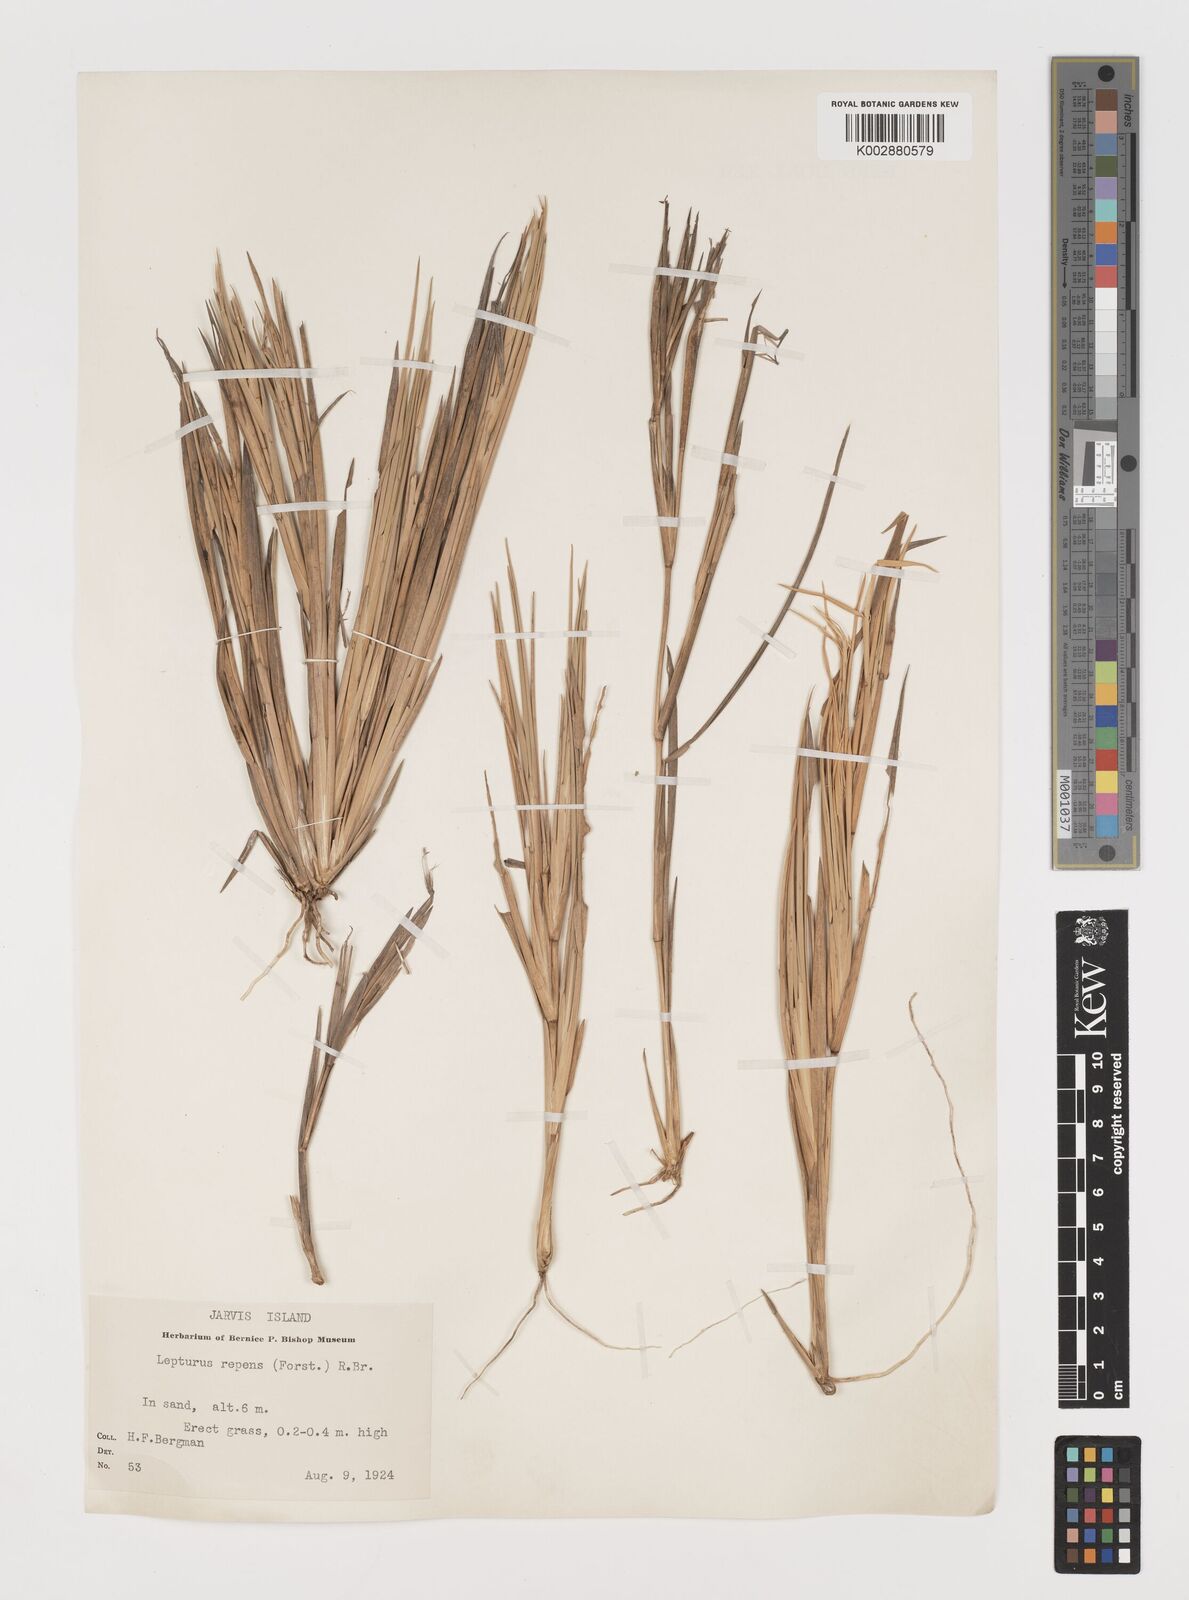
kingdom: Plantae
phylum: Tracheophyta
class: Liliopsida
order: Poales
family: Poaceae
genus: Lepturus
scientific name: Lepturus repens
